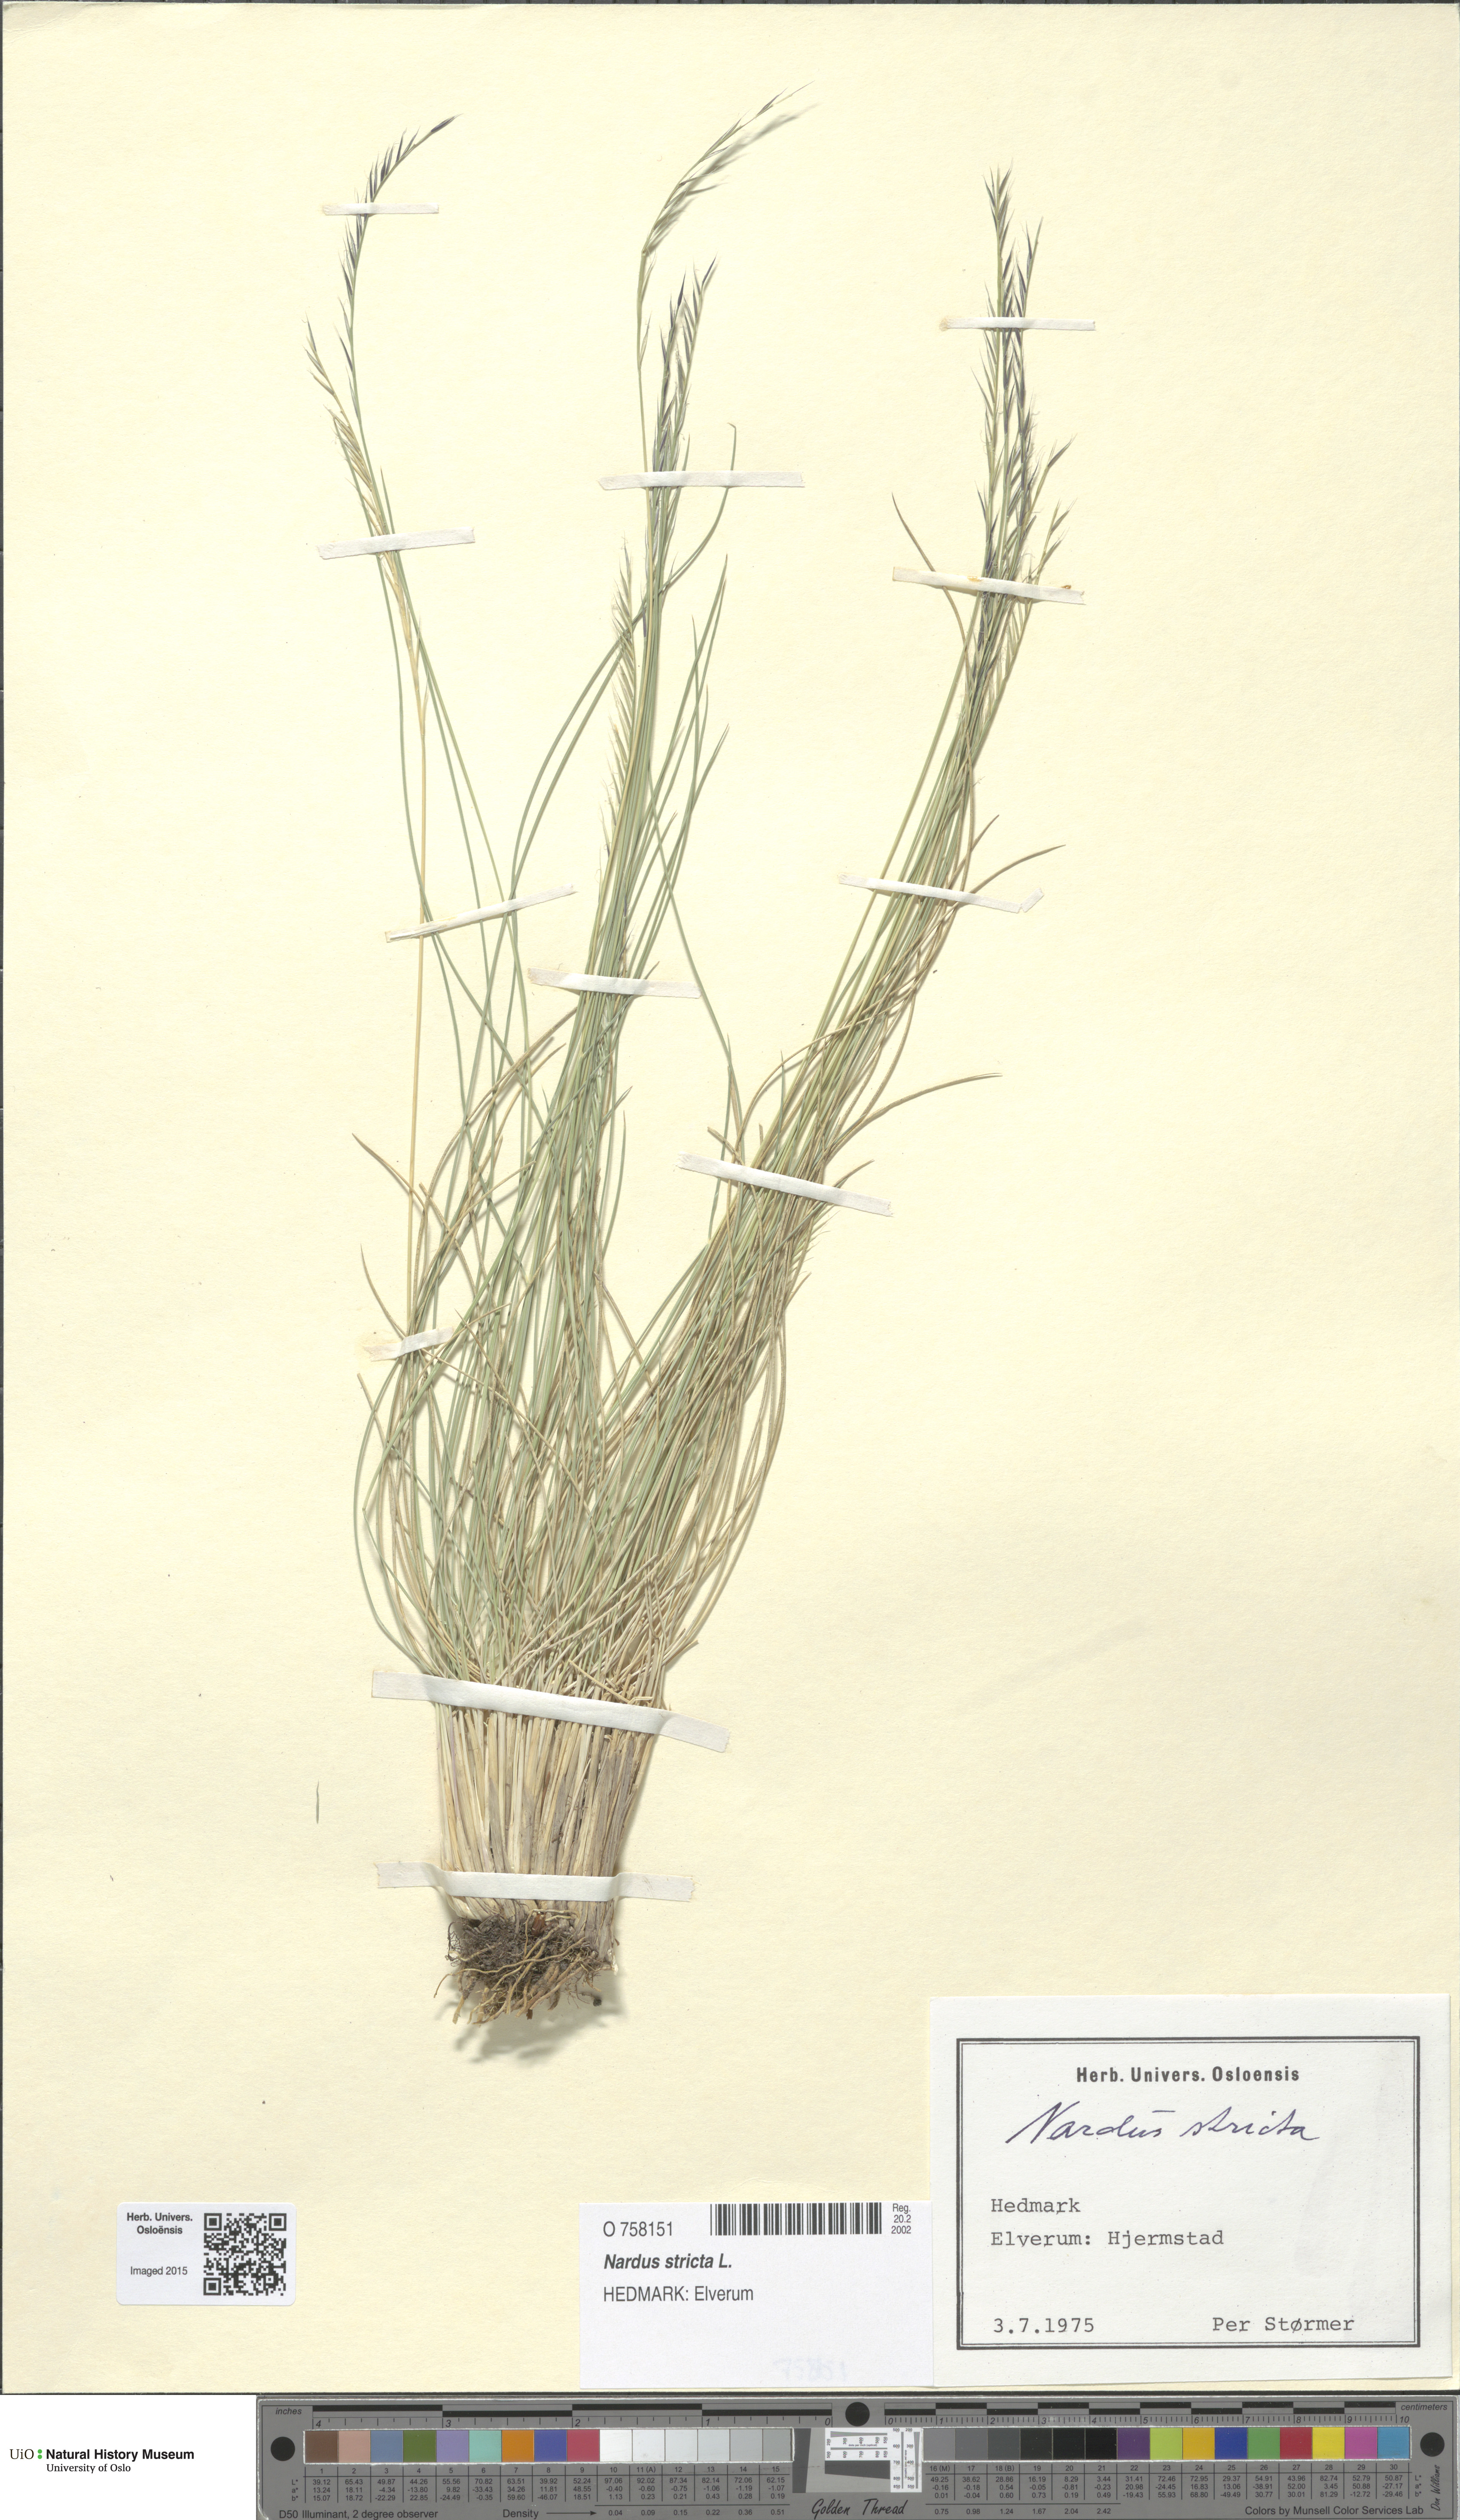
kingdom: Plantae
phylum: Tracheophyta
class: Liliopsida
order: Poales
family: Poaceae
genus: Nardus
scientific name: Nardus stricta
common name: Mat-grass
